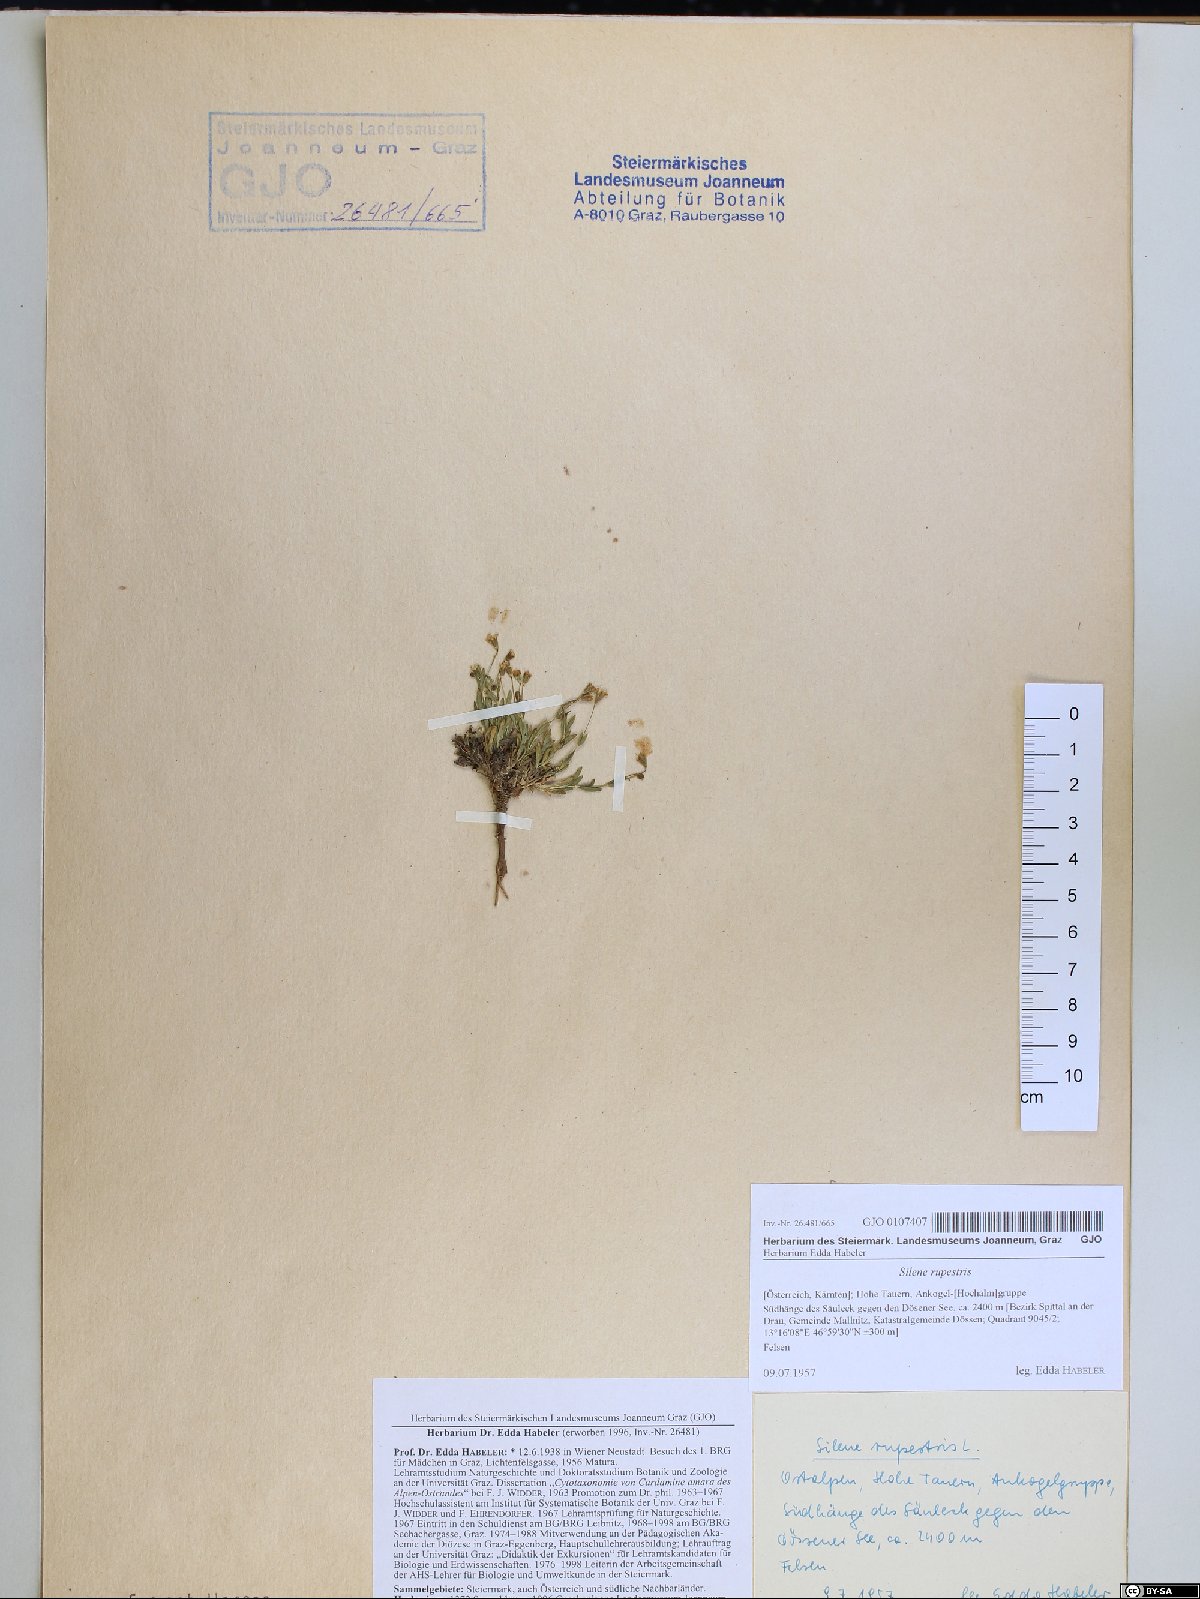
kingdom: Plantae
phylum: Tracheophyta
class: Magnoliopsida
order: Caryophyllales
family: Caryophyllaceae
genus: Atocion
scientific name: Atocion rupestre
